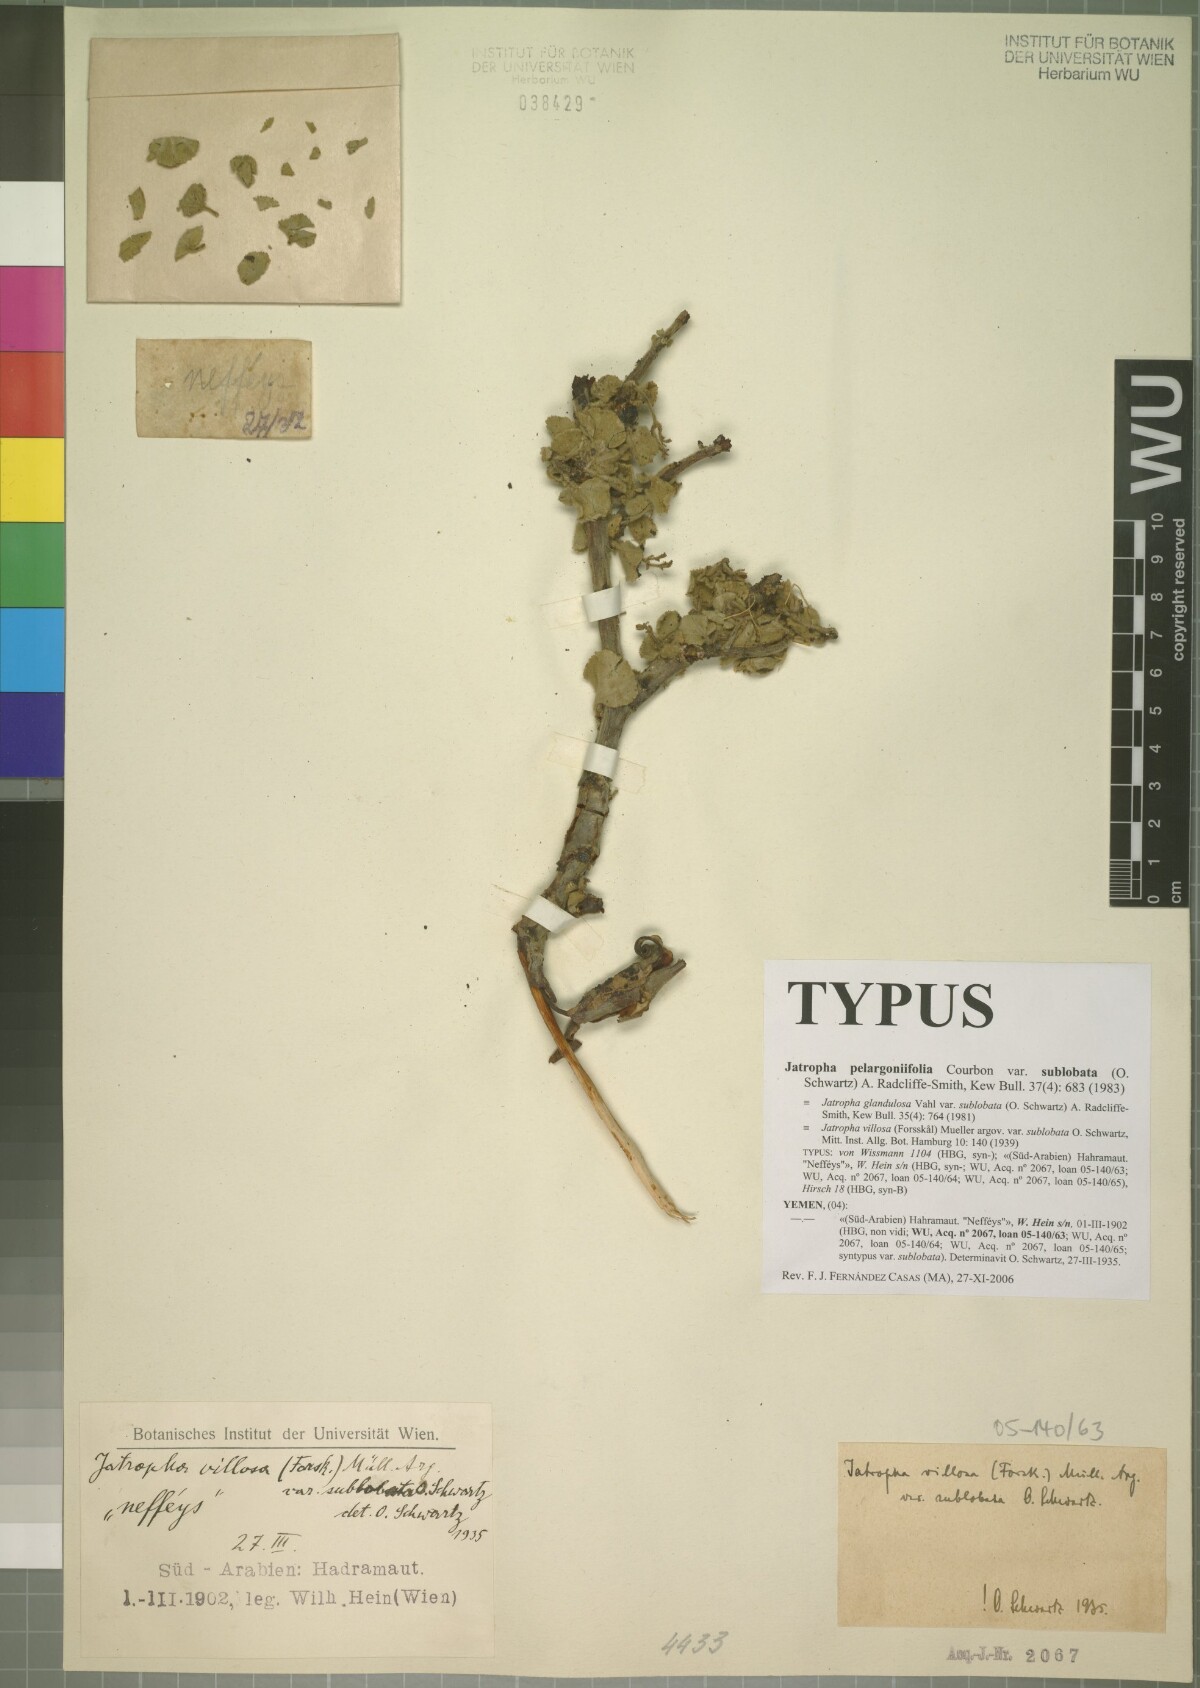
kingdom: Plantae
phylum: Tracheophyta
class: Magnoliopsida
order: Malpighiales
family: Euphorbiaceae
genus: Jatropha
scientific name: Jatropha pelargoniifolia
